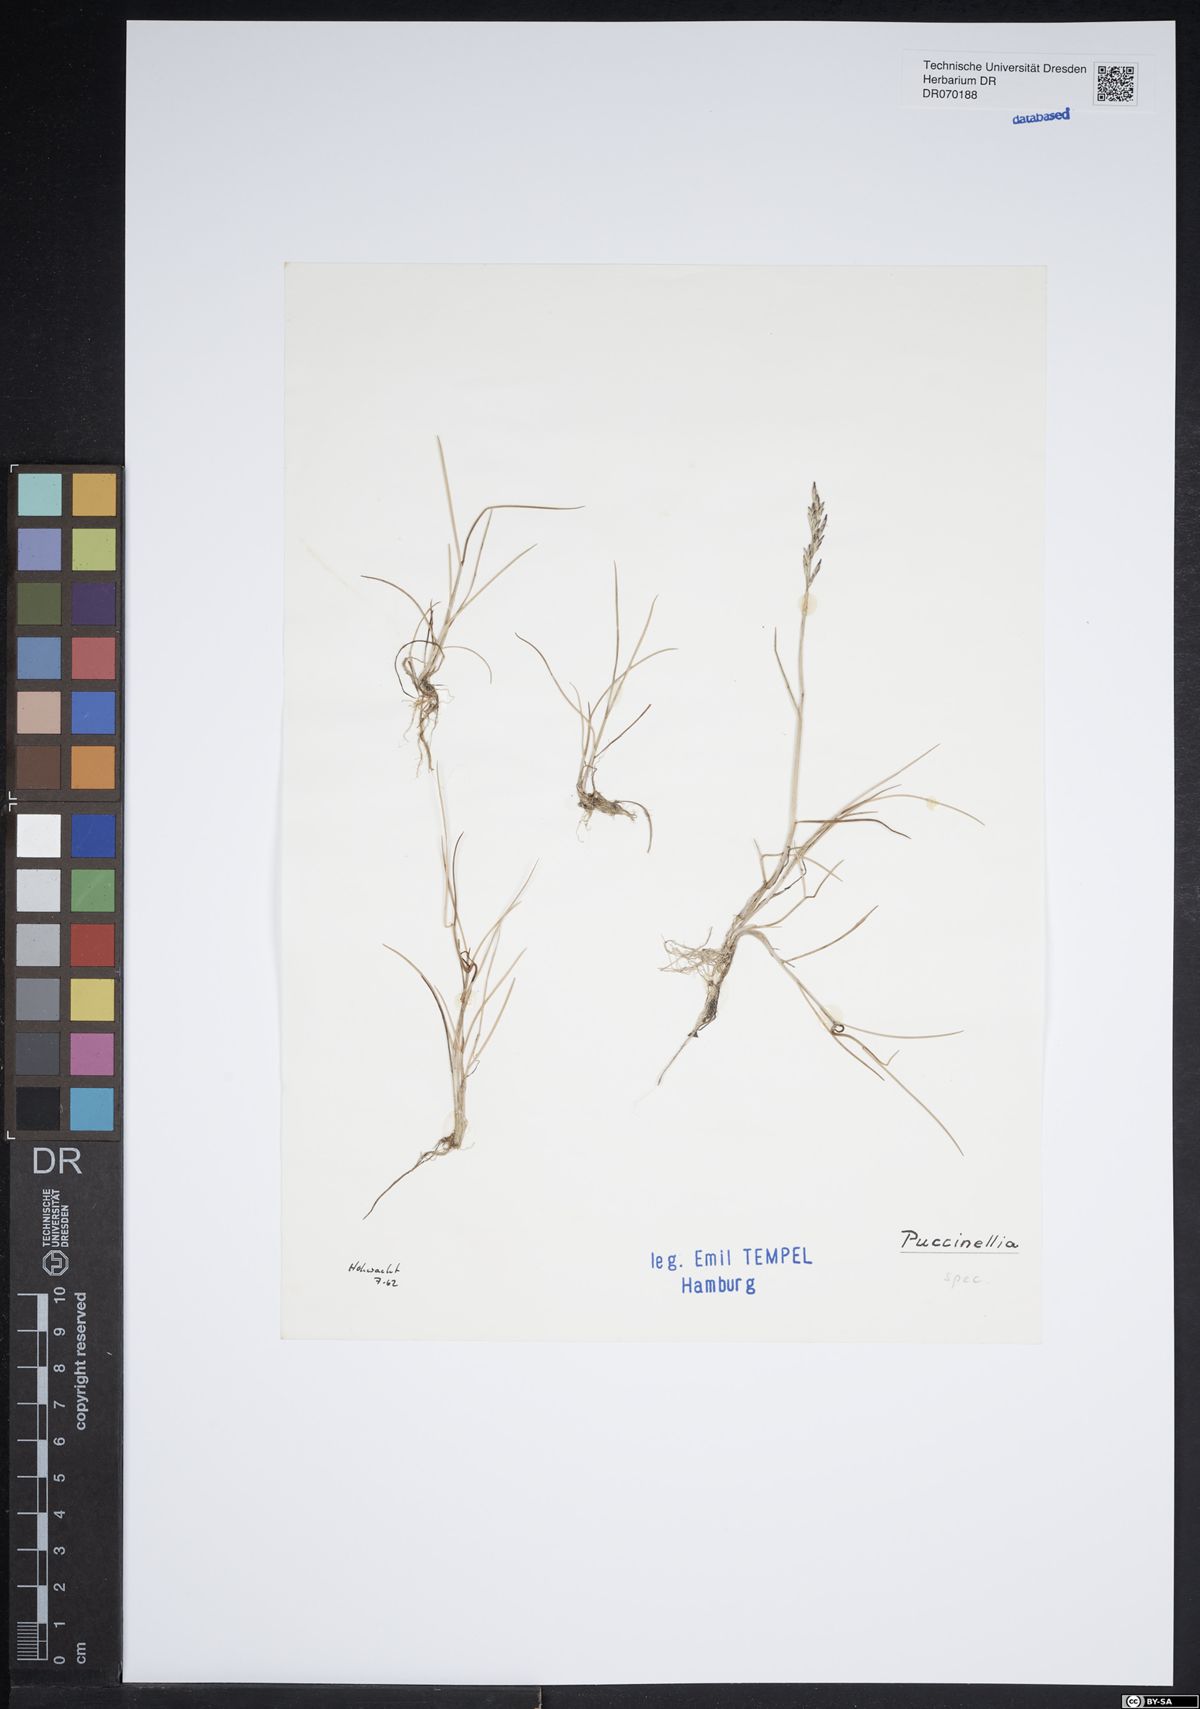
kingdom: Plantae
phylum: Tracheophyta
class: Liliopsida
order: Poales
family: Poaceae
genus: Puccinellia
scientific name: Puccinellia
